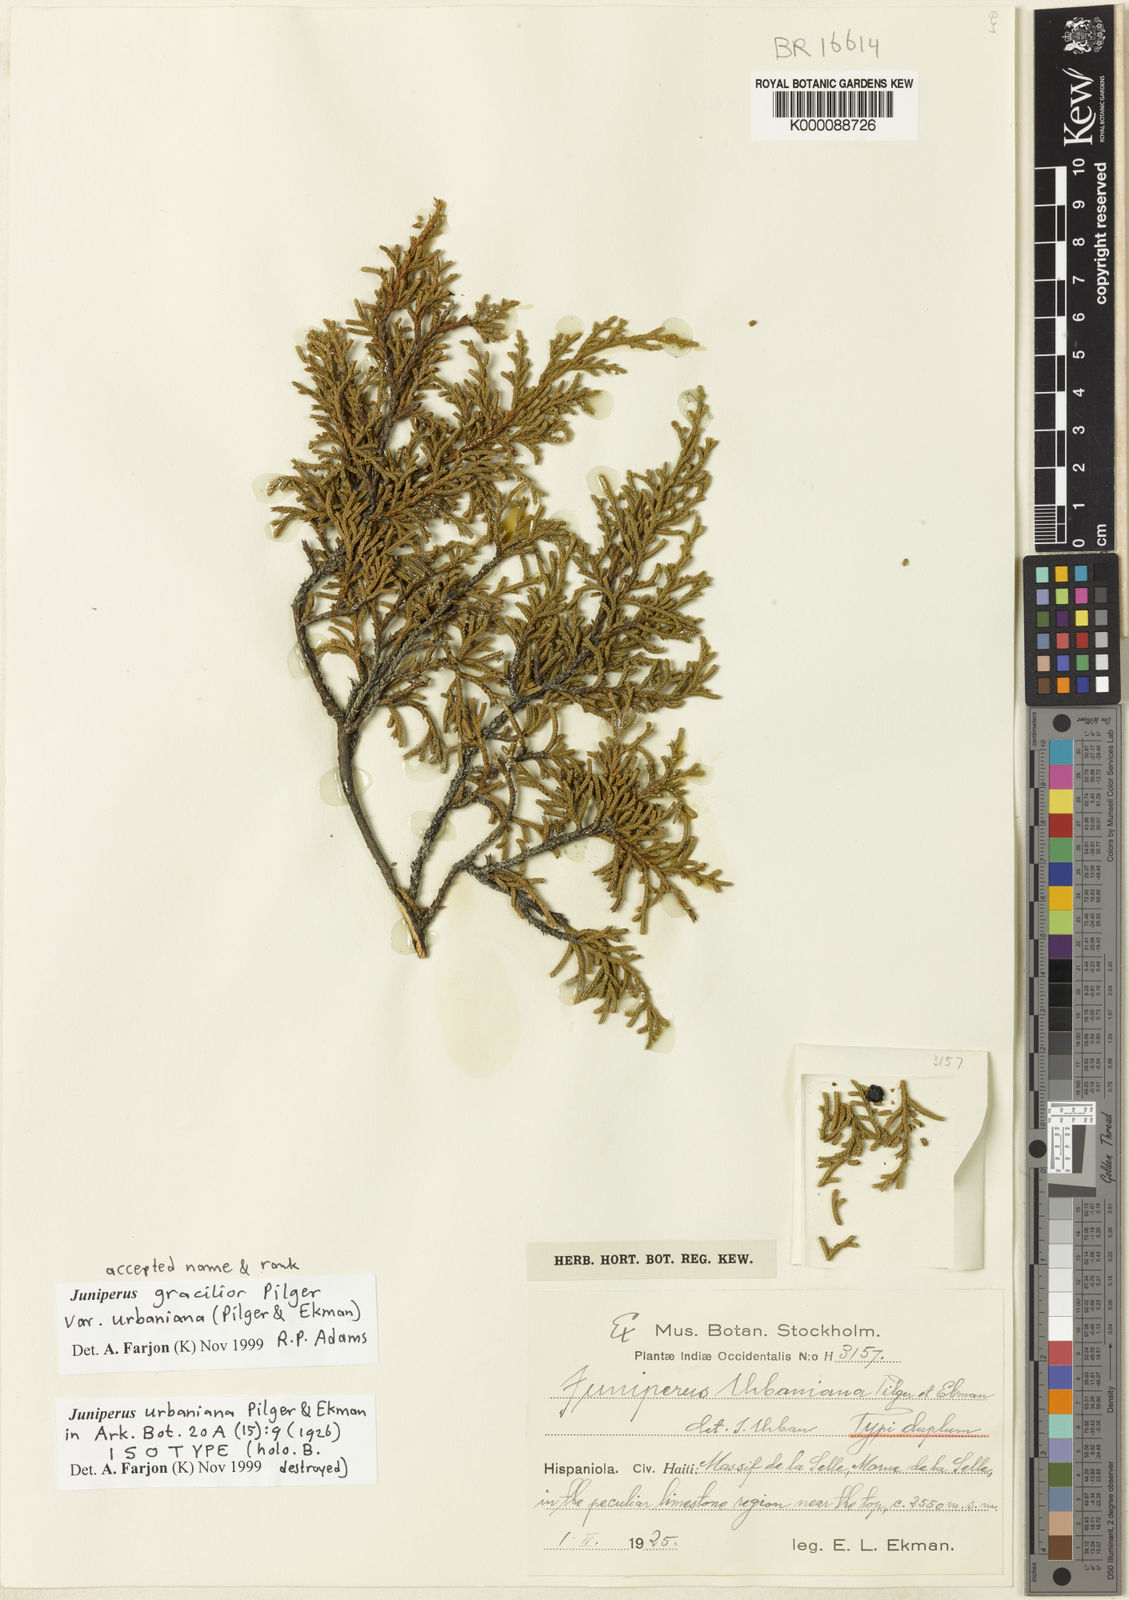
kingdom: Plantae
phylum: Tracheophyta
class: Pinopsida
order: Pinales
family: Cupressaceae
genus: Juniperus
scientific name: Juniperus gracilior
